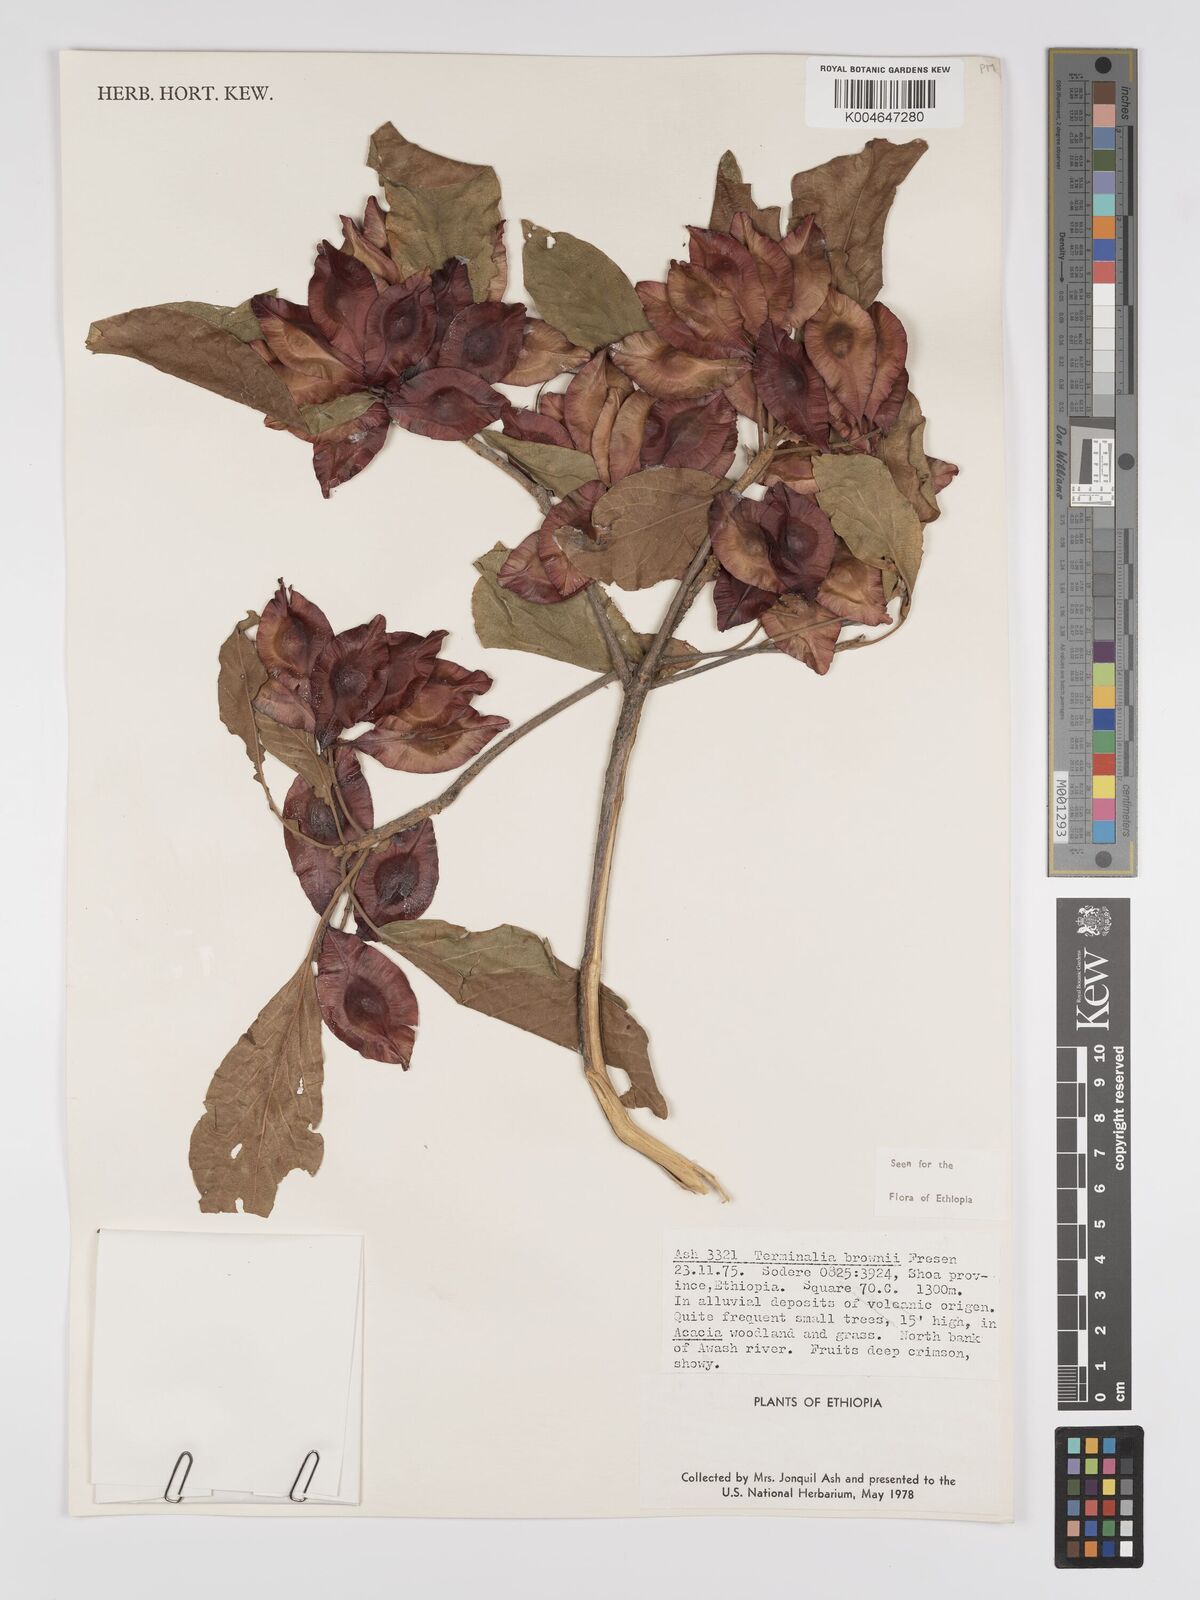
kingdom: Plantae
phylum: Tracheophyta
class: Magnoliopsida
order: Myrtales
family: Combretaceae
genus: Terminalia
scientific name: Terminalia brownii
